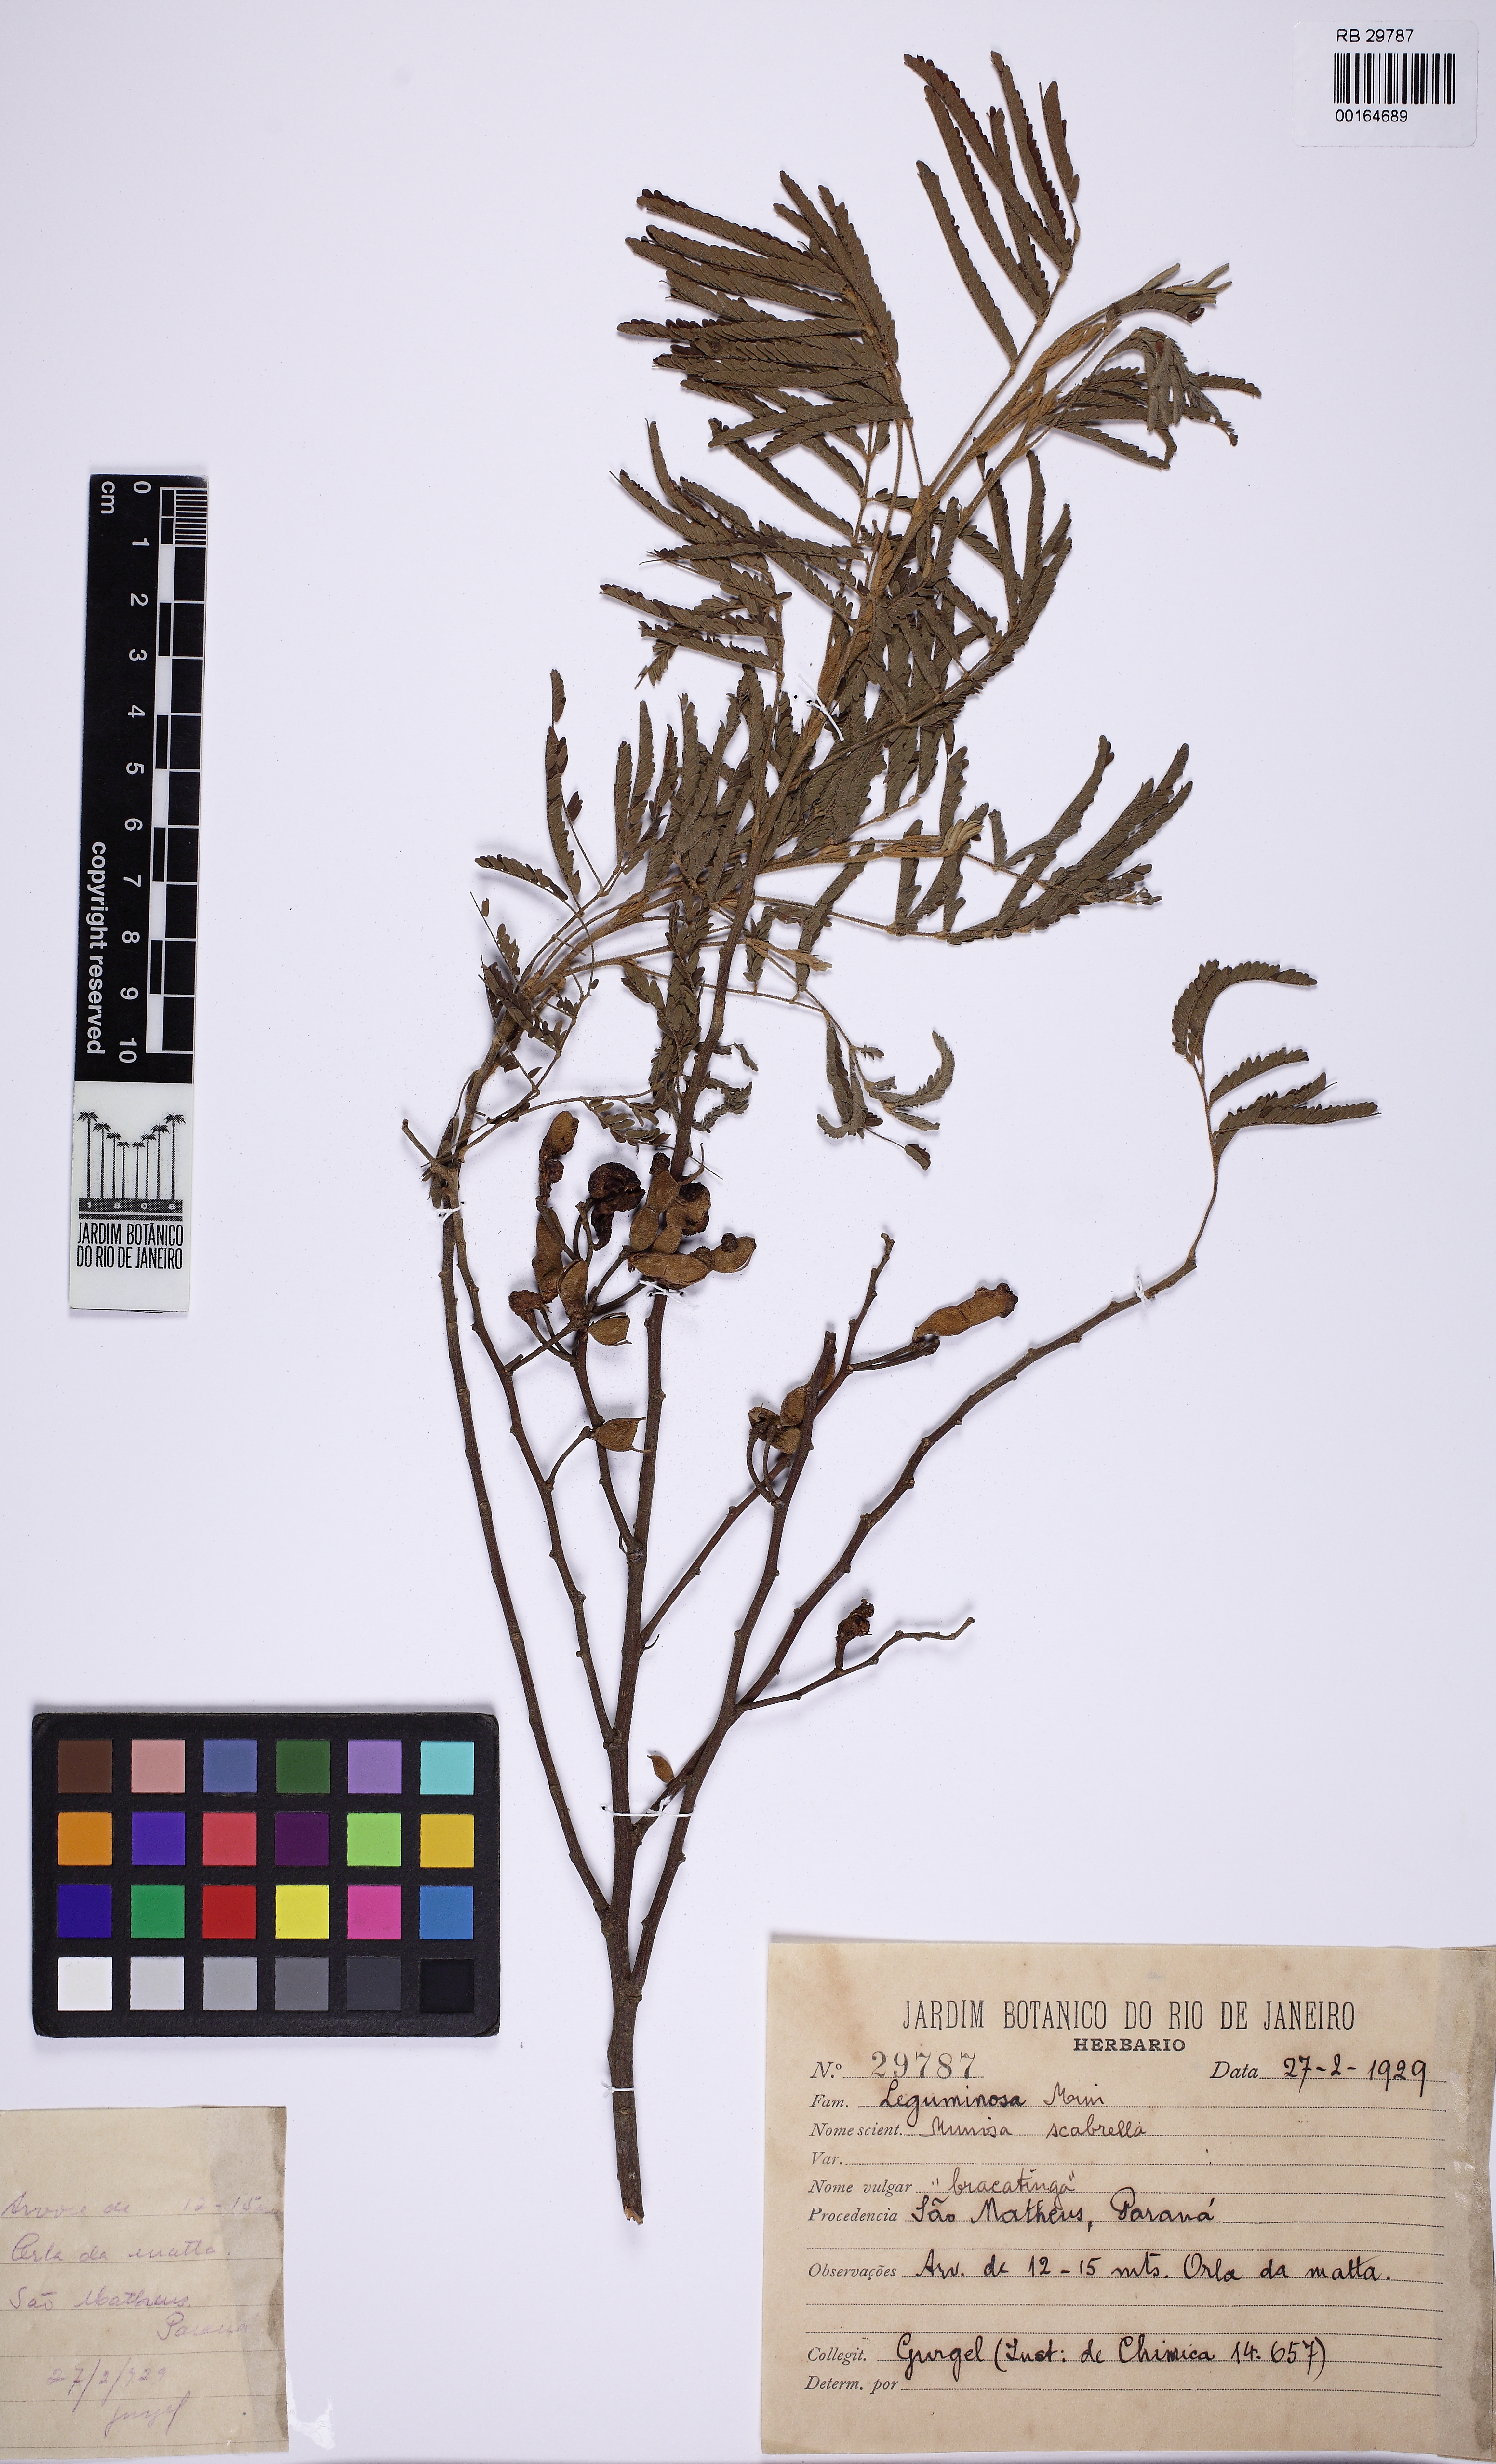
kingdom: Plantae
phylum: Tracheophyta
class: Magnoliopsida
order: Fabales
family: Fabaceae
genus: Mimosa
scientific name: Mimosa scabrella
